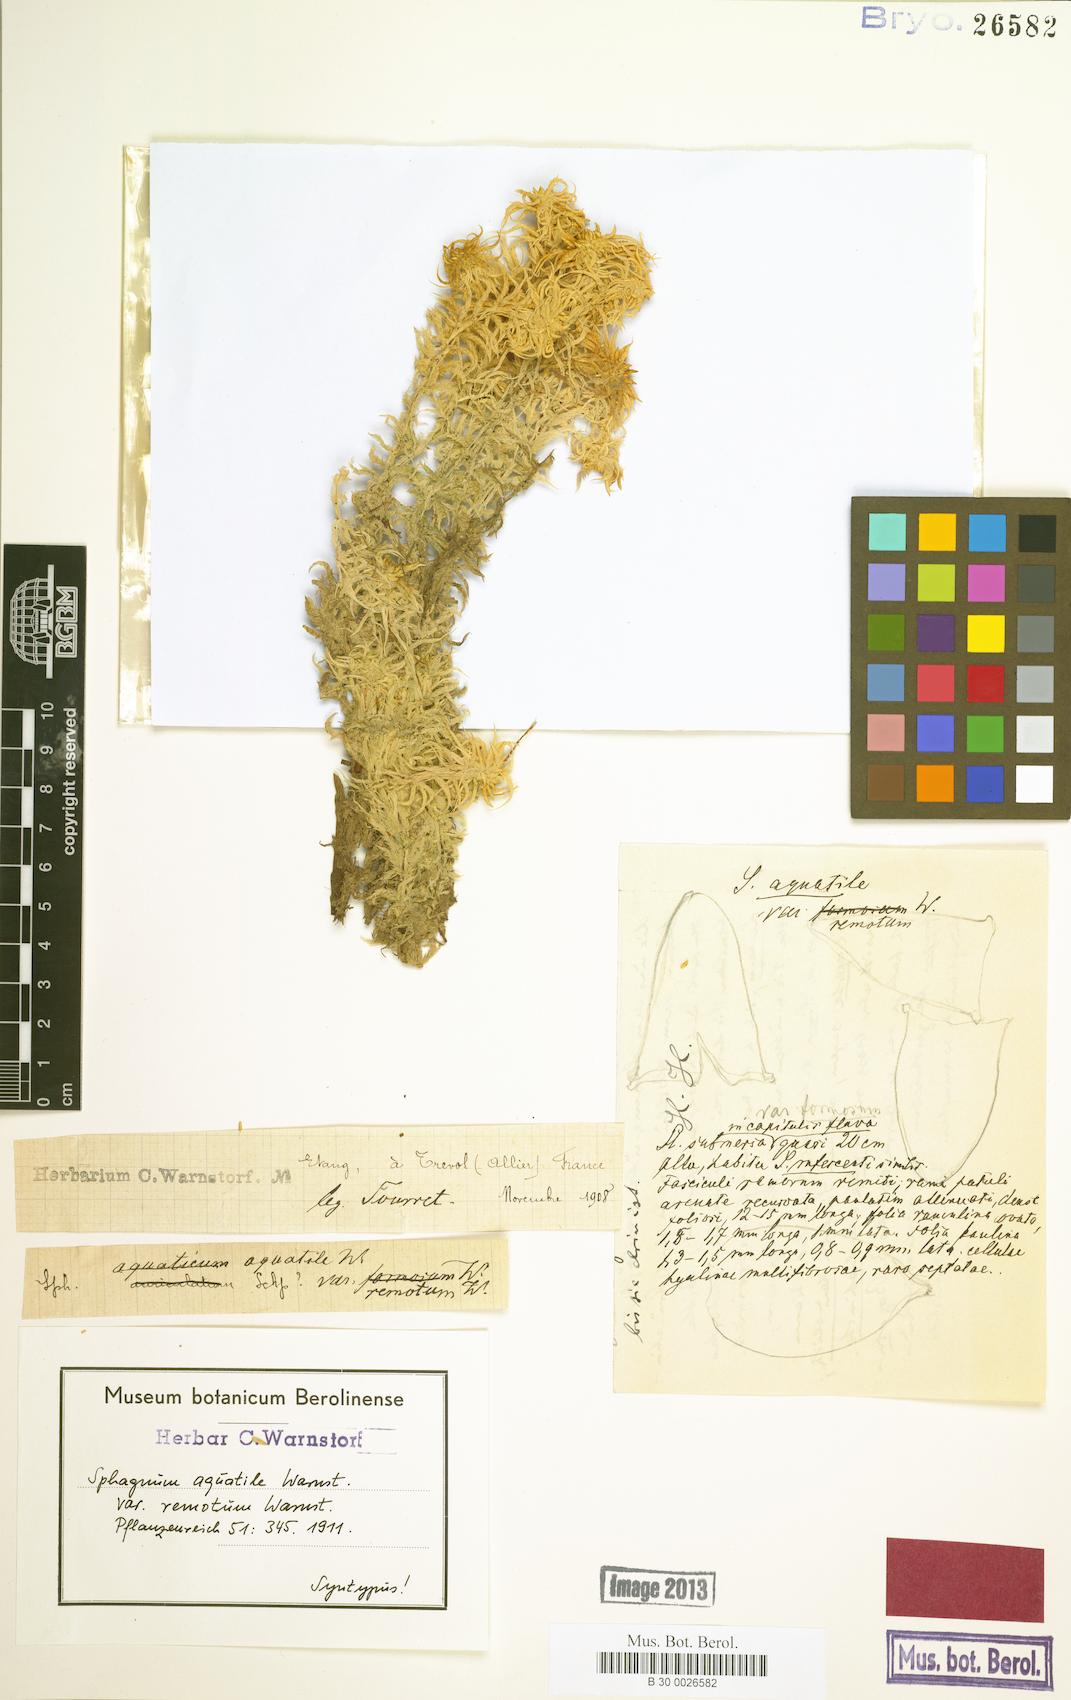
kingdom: Plantae
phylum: Bryophyta
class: Sphagnopsida
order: Sphagnales
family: Sphagnaceae
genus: Sphagnum
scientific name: Sphagnum denticulatum
